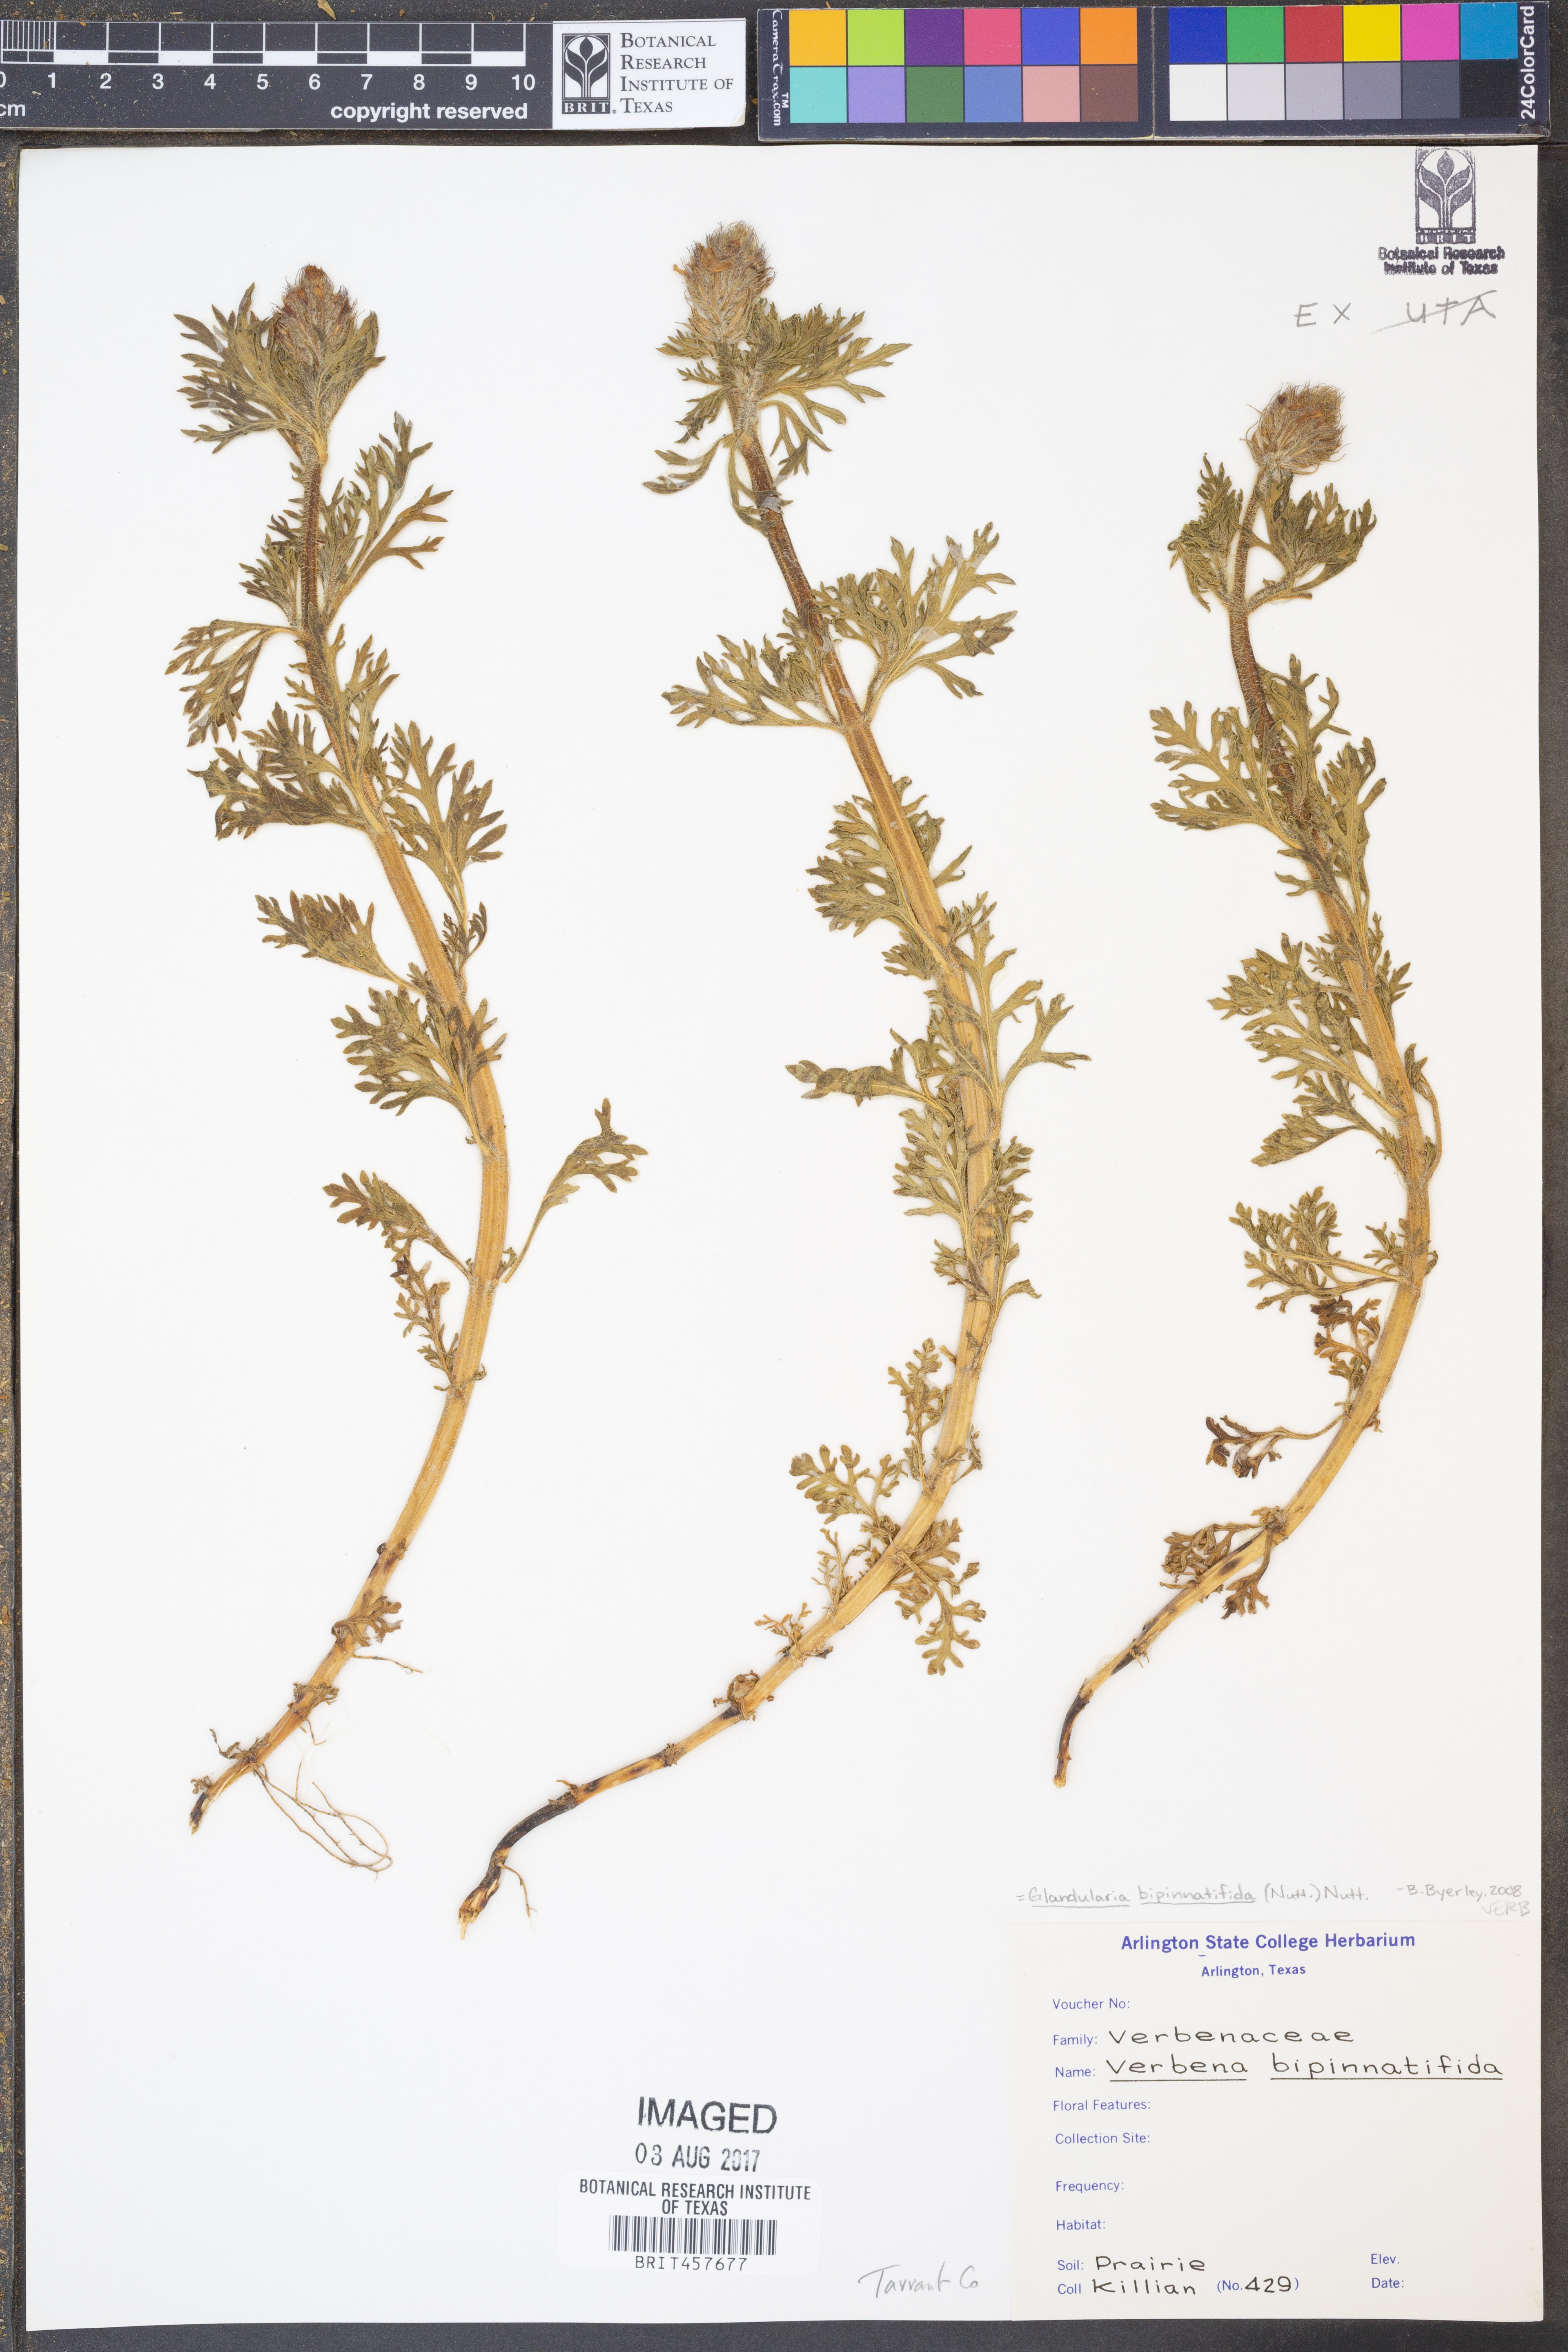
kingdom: Plantae
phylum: Tracheophyta
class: Magnoliopsida
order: Lamiales
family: Verbenaceae
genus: Verbena
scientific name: Verbena bipinnatifida
